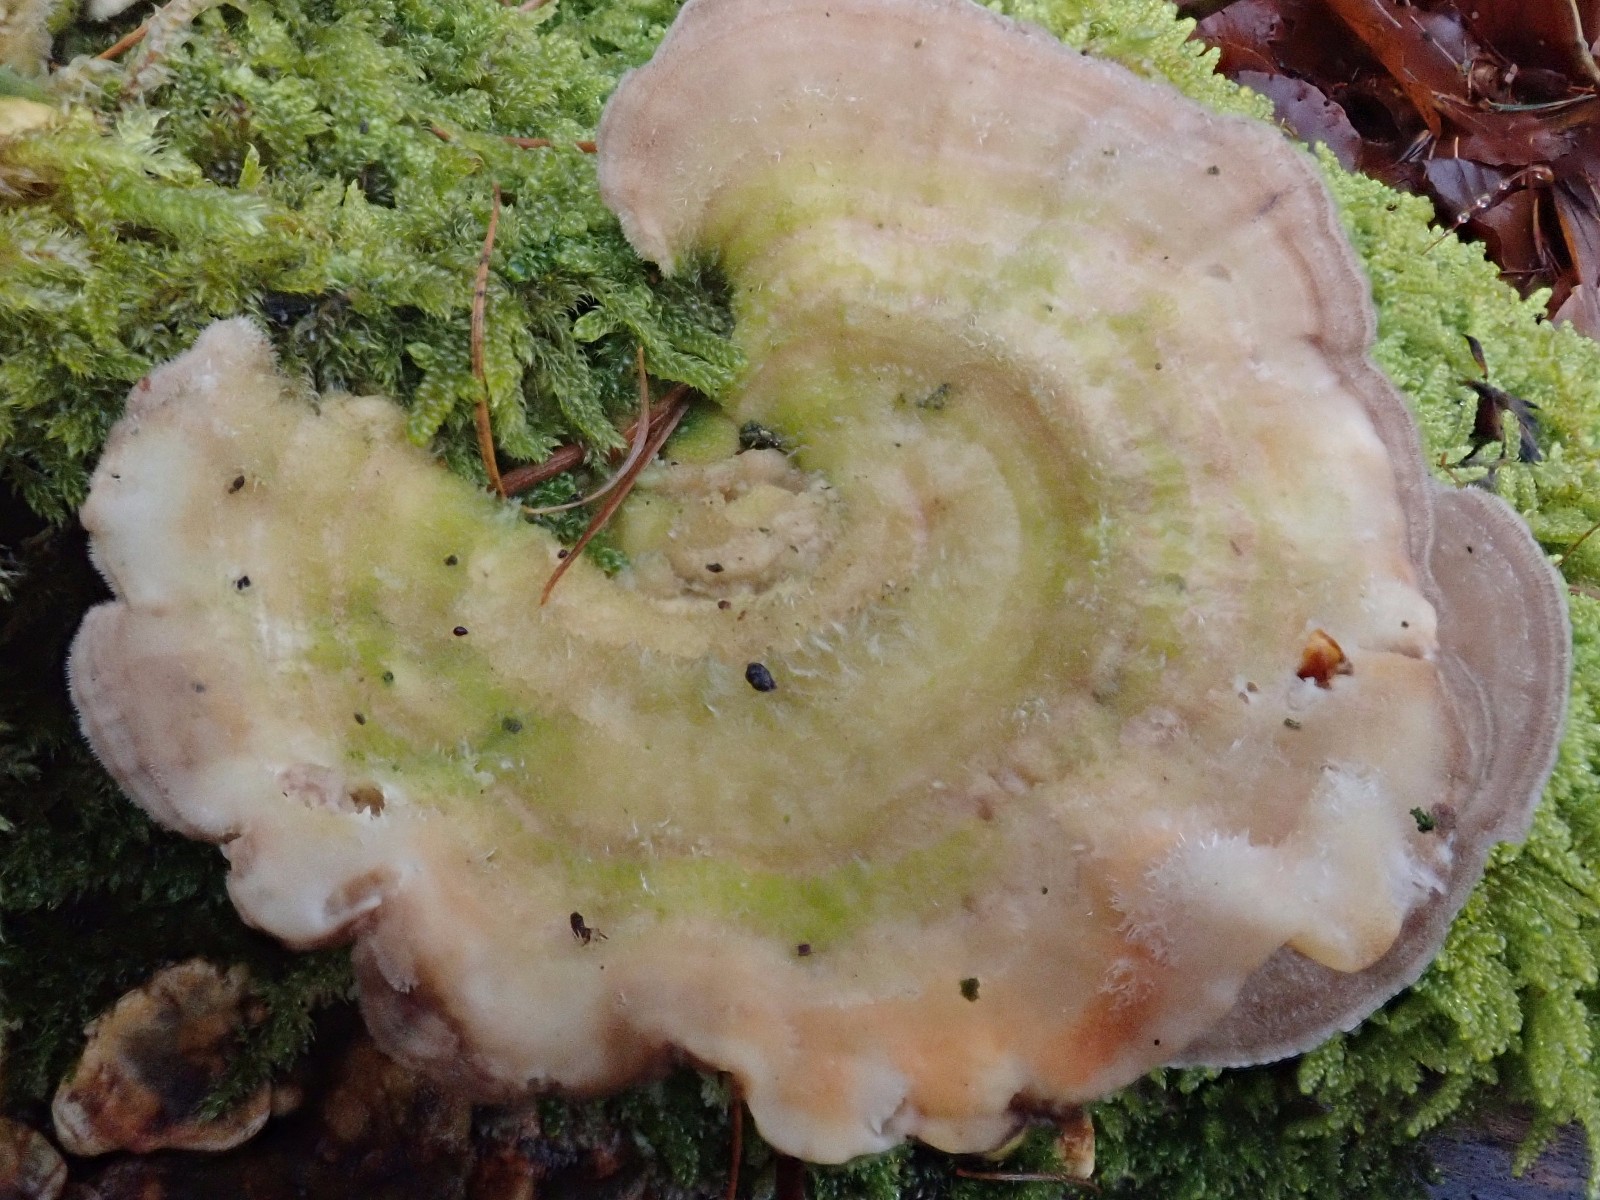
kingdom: Fungi
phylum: Basidiomycota
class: Agaricomycetes
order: Polyporales
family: Polyporaceae
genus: Lenzites
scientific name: Lenzites betulinus
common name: birke-læderporesvamp
